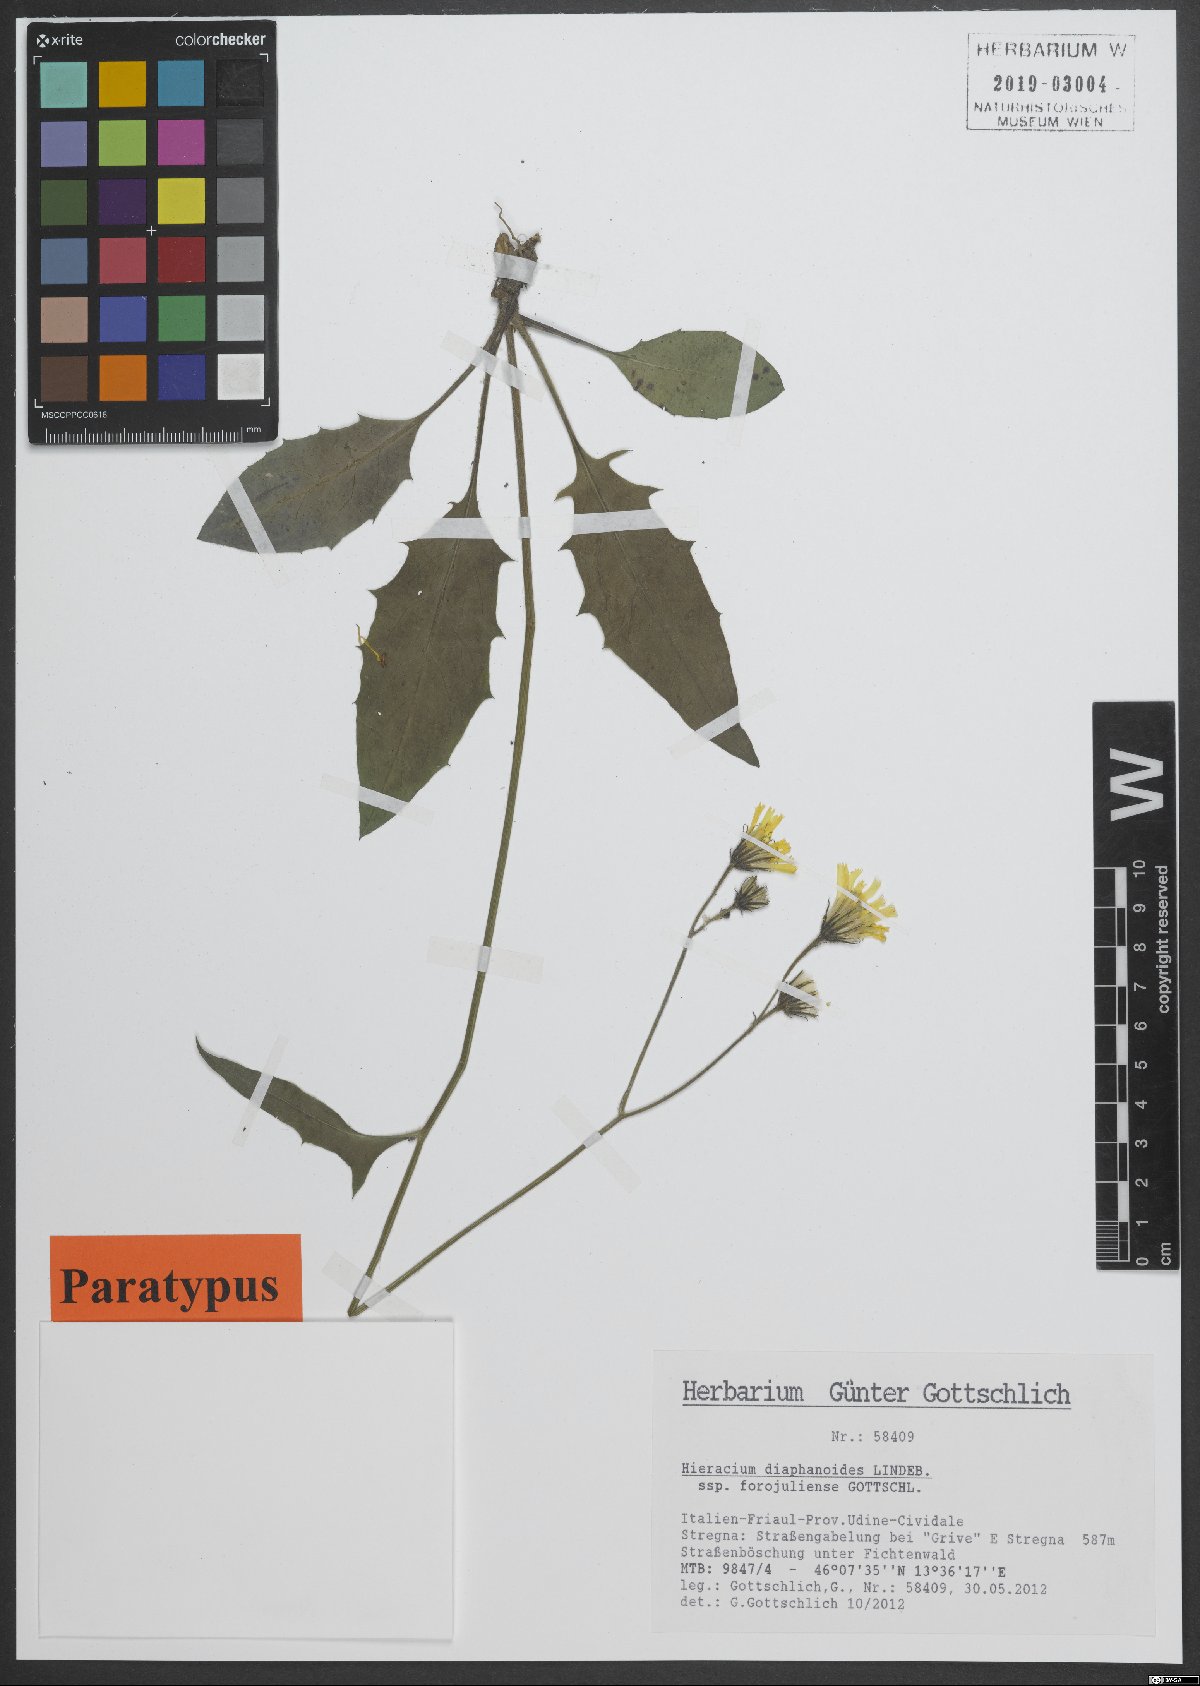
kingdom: Plantae
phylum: Tracheophyta
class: Magnoliopsida
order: Asterales
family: Asteraceae
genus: Hieracium
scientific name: Hieracium diaphanoides
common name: Fine-bracted hawkweed
